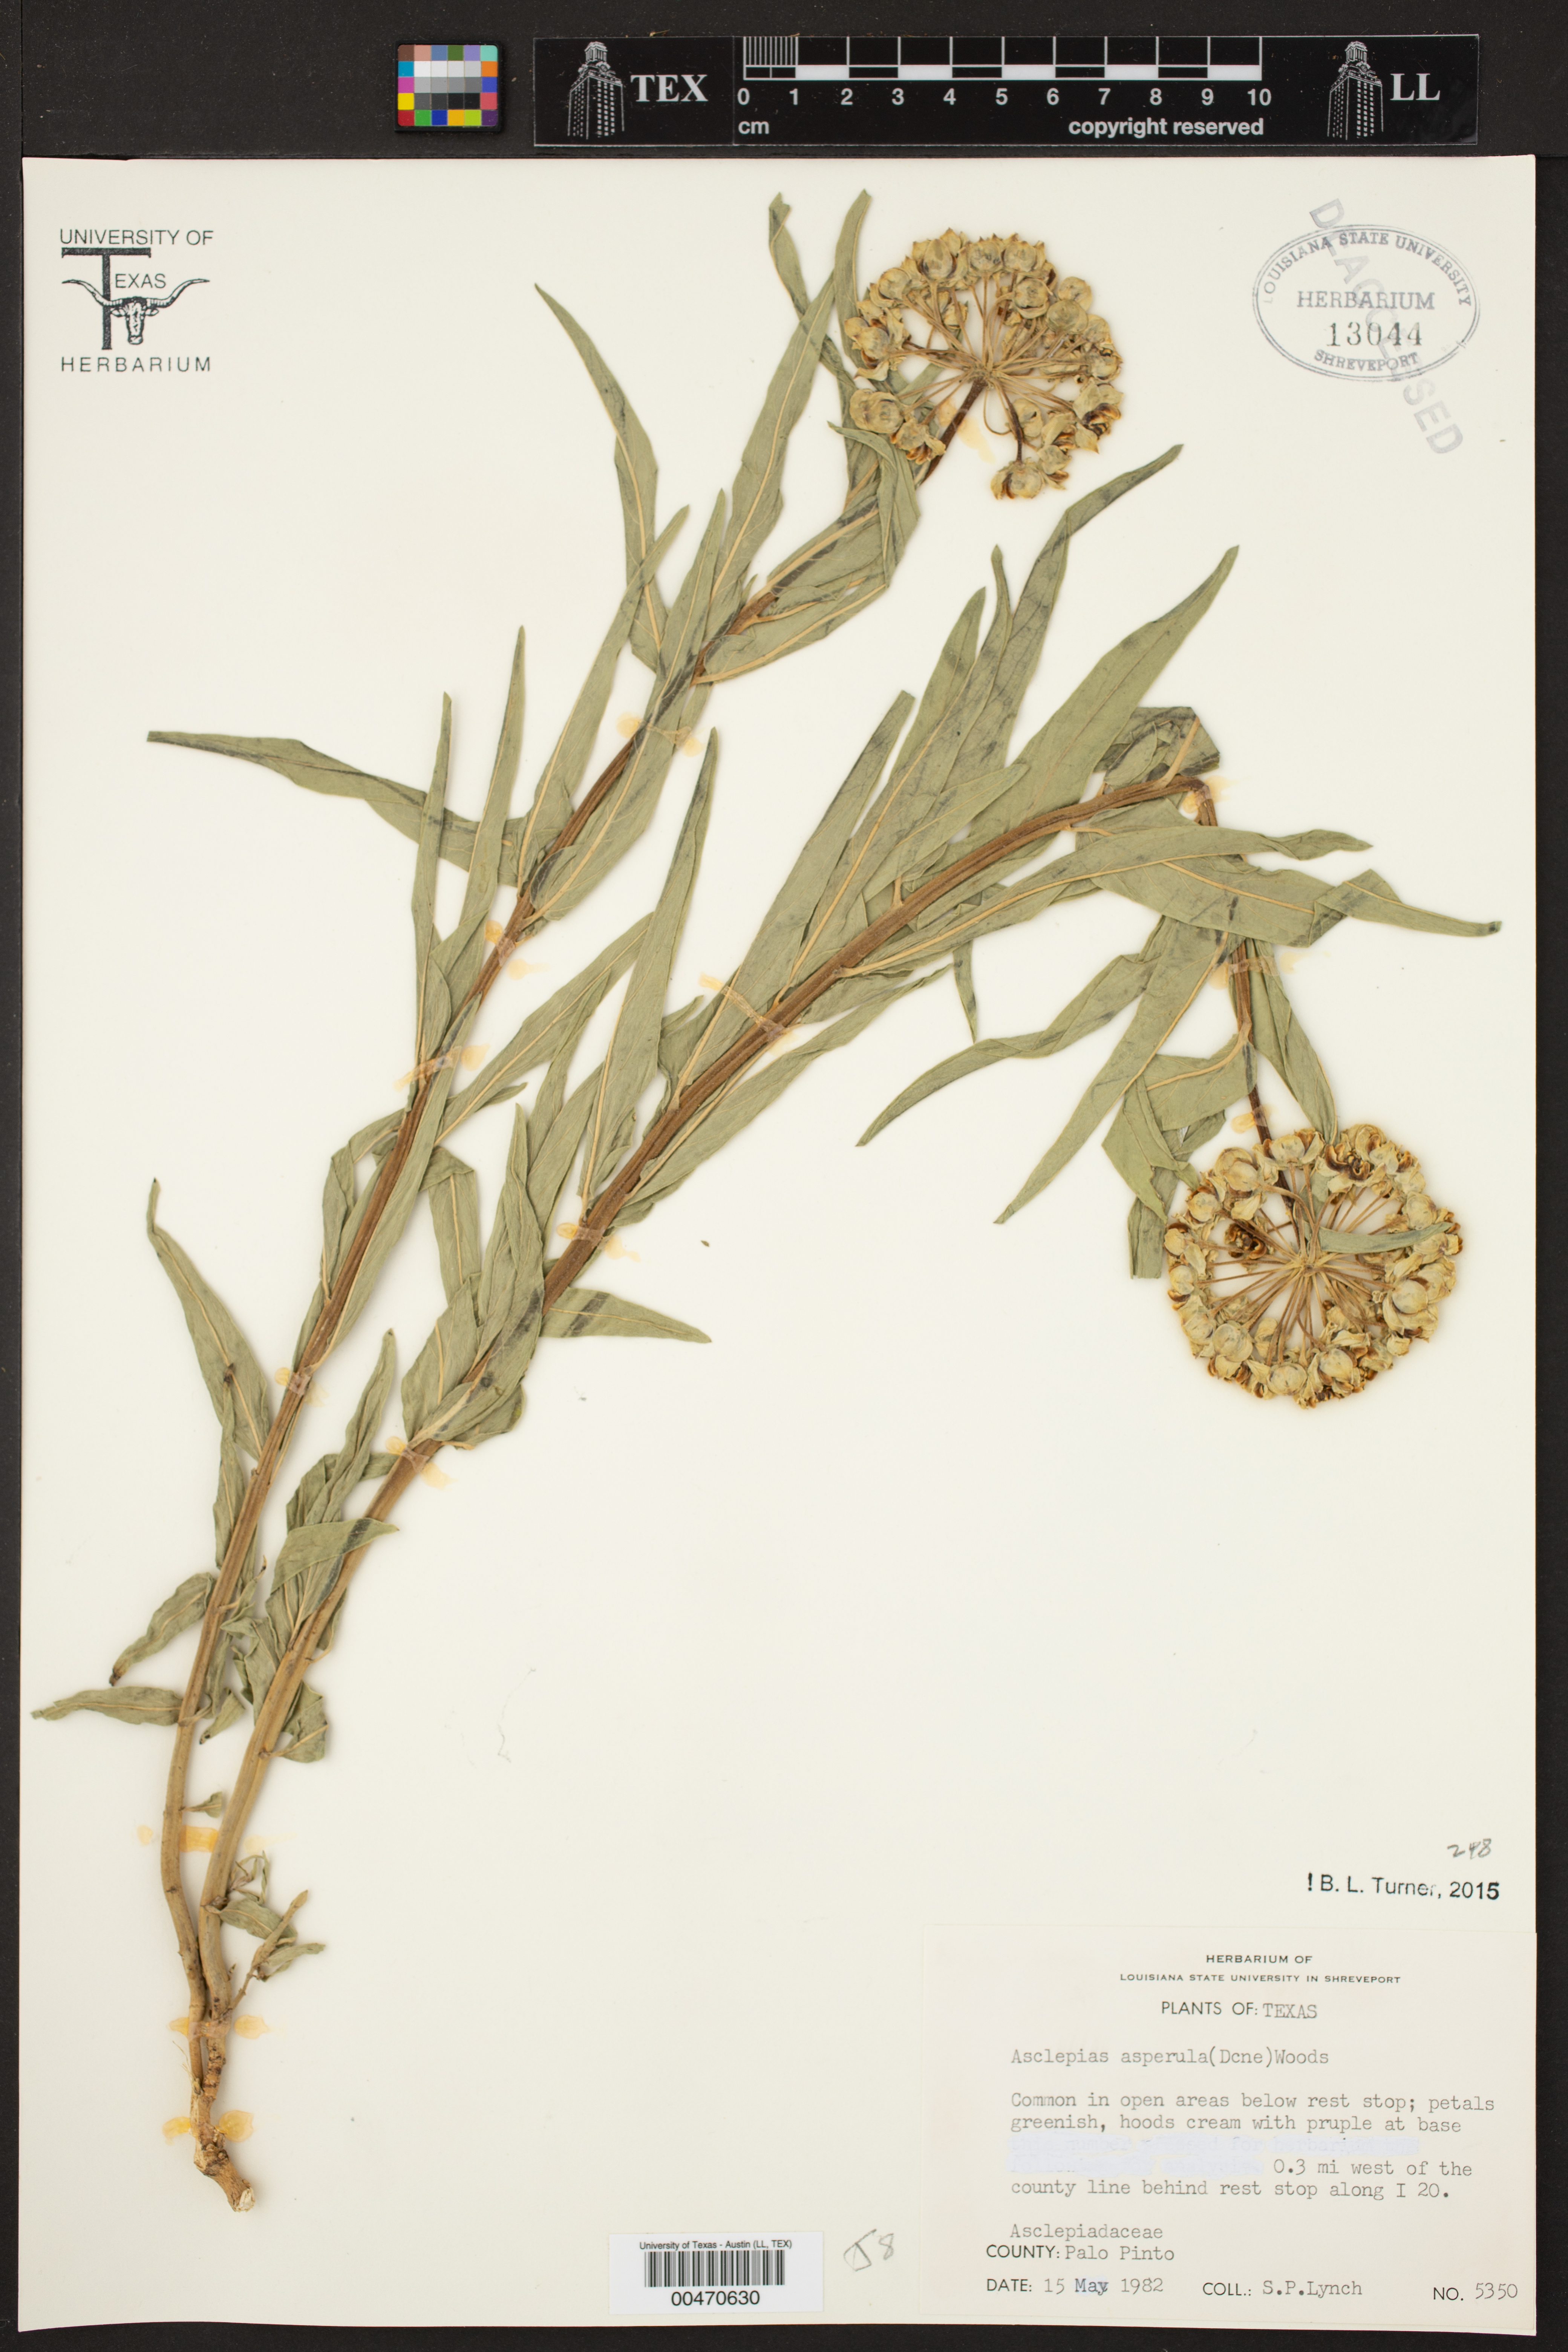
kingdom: Plantae
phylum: Tracheophyta
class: Magnoliopsida
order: Gentianales
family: Apocynaceae
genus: Asclepias
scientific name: Asclepias asperula
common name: Antelope horns
